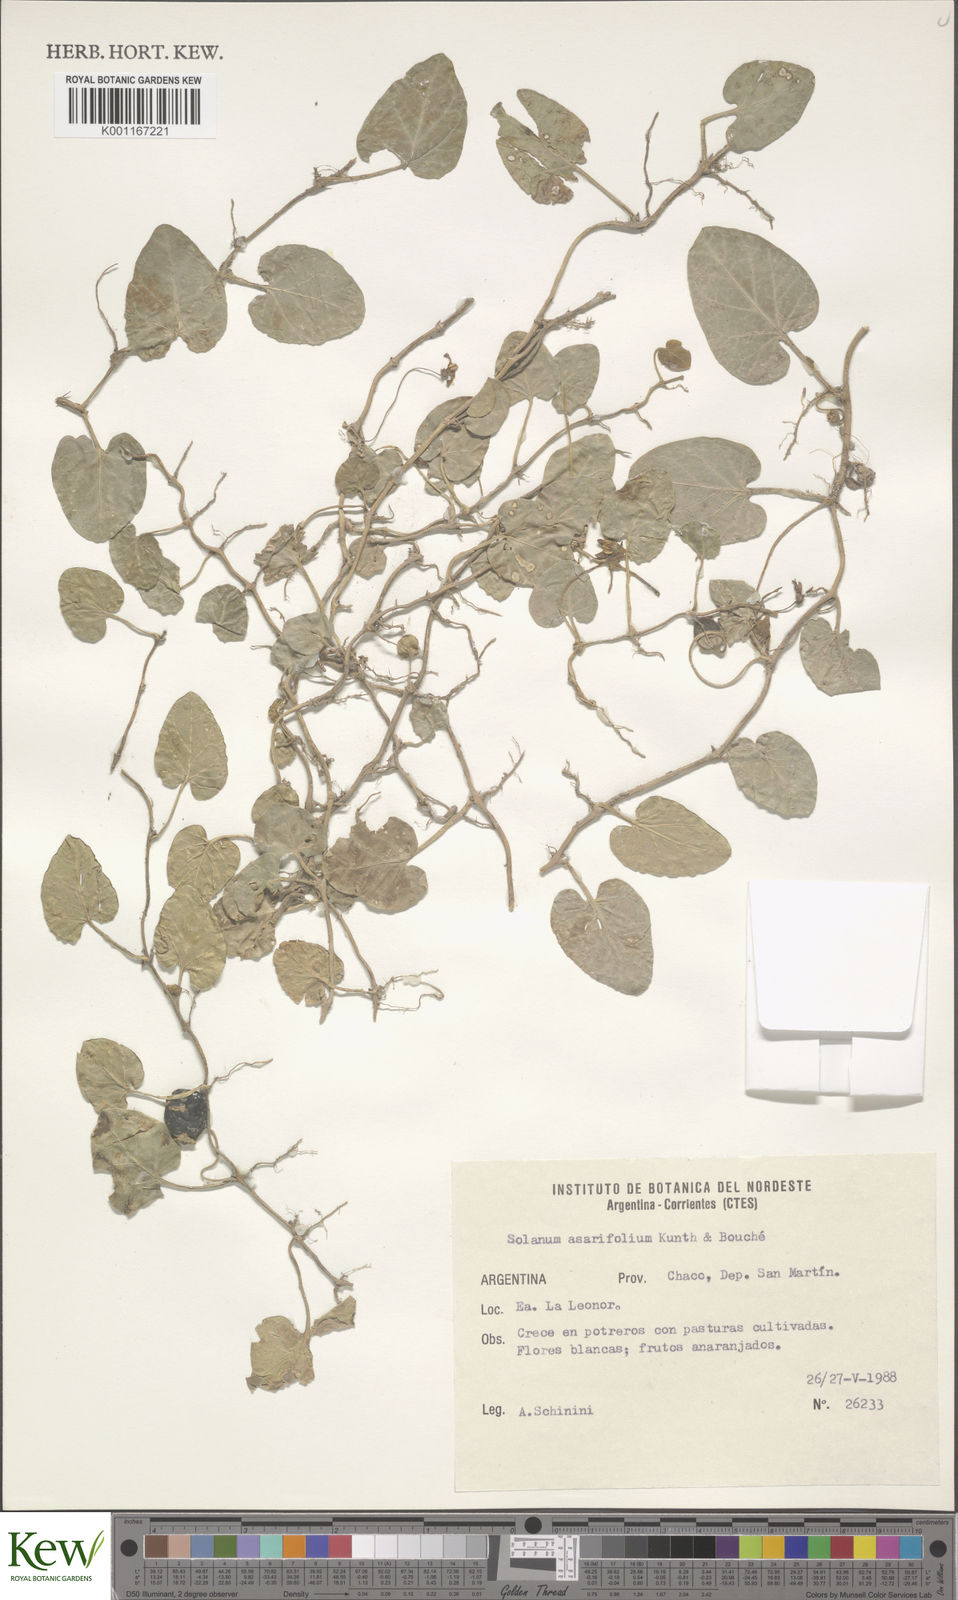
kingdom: Plantae
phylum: Tracheophyta
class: Magnoliopsida
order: Solanales
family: Solanaceae
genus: Solanum
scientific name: Solanum
